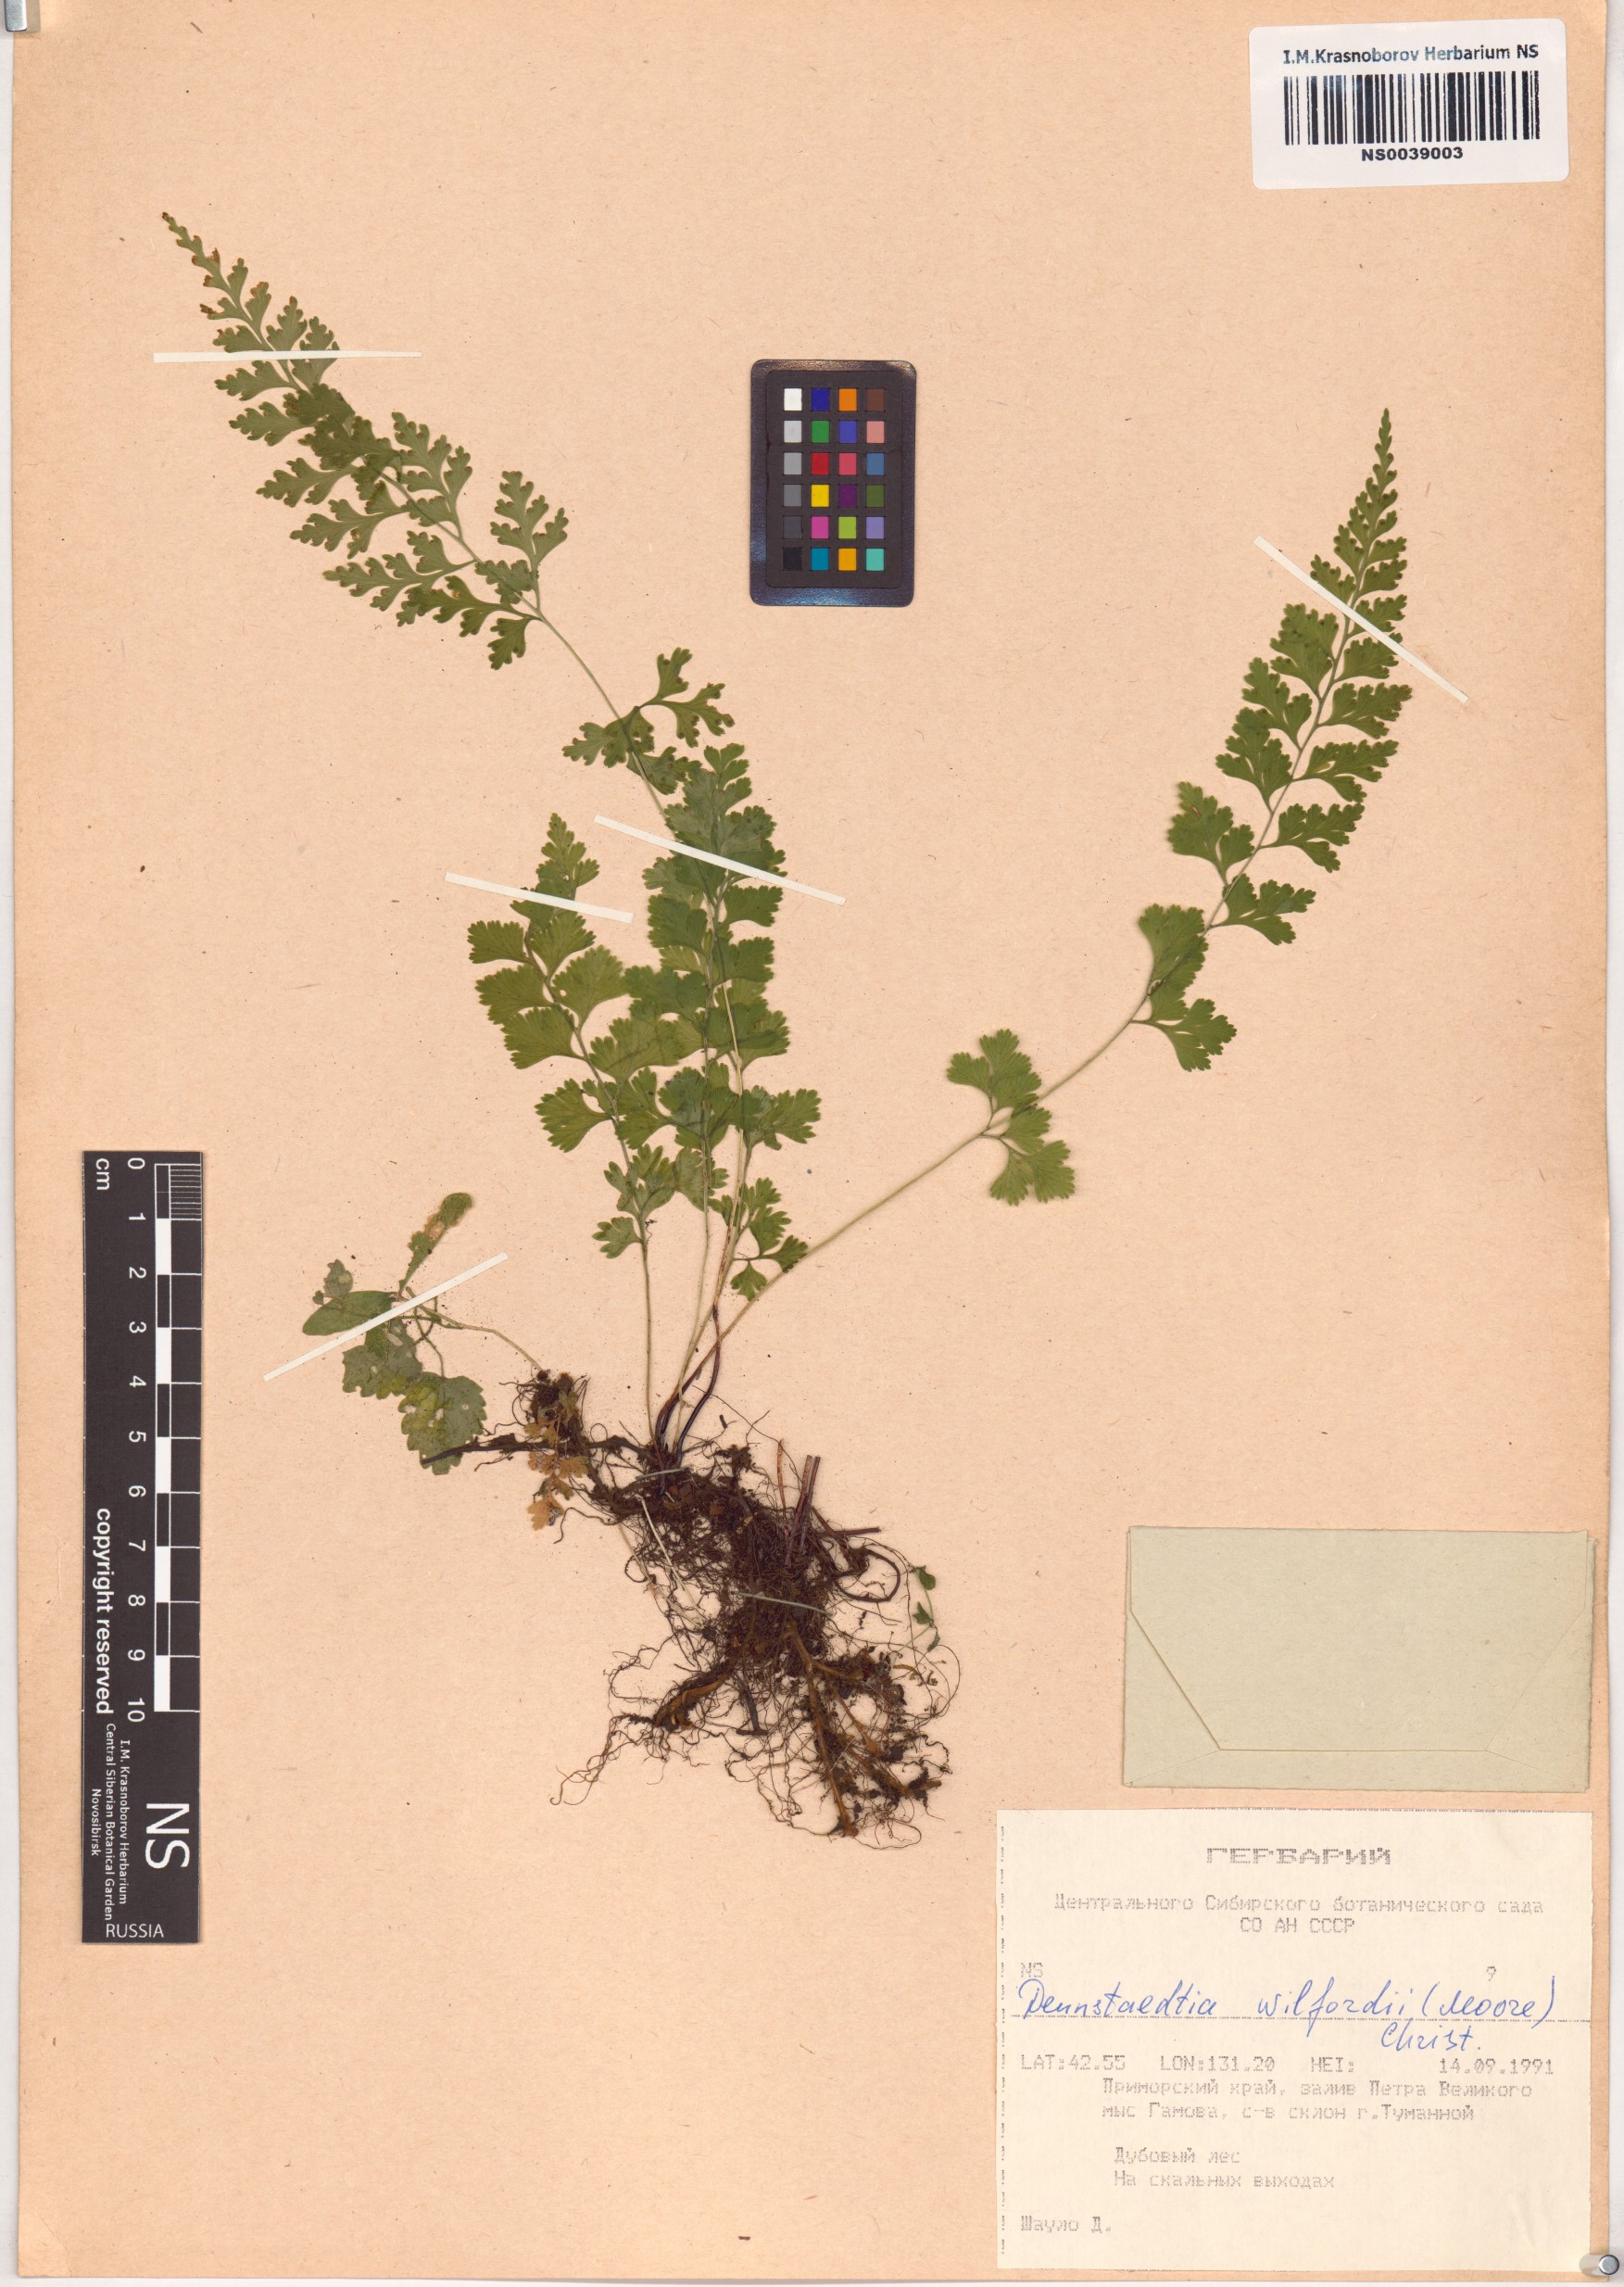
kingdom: Plantae
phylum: Tracheophyta
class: Polypodiopsida
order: Polypodiales
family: Dennstaedtiaceae
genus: Sitobolium
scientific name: Sitobolium wilfordii
